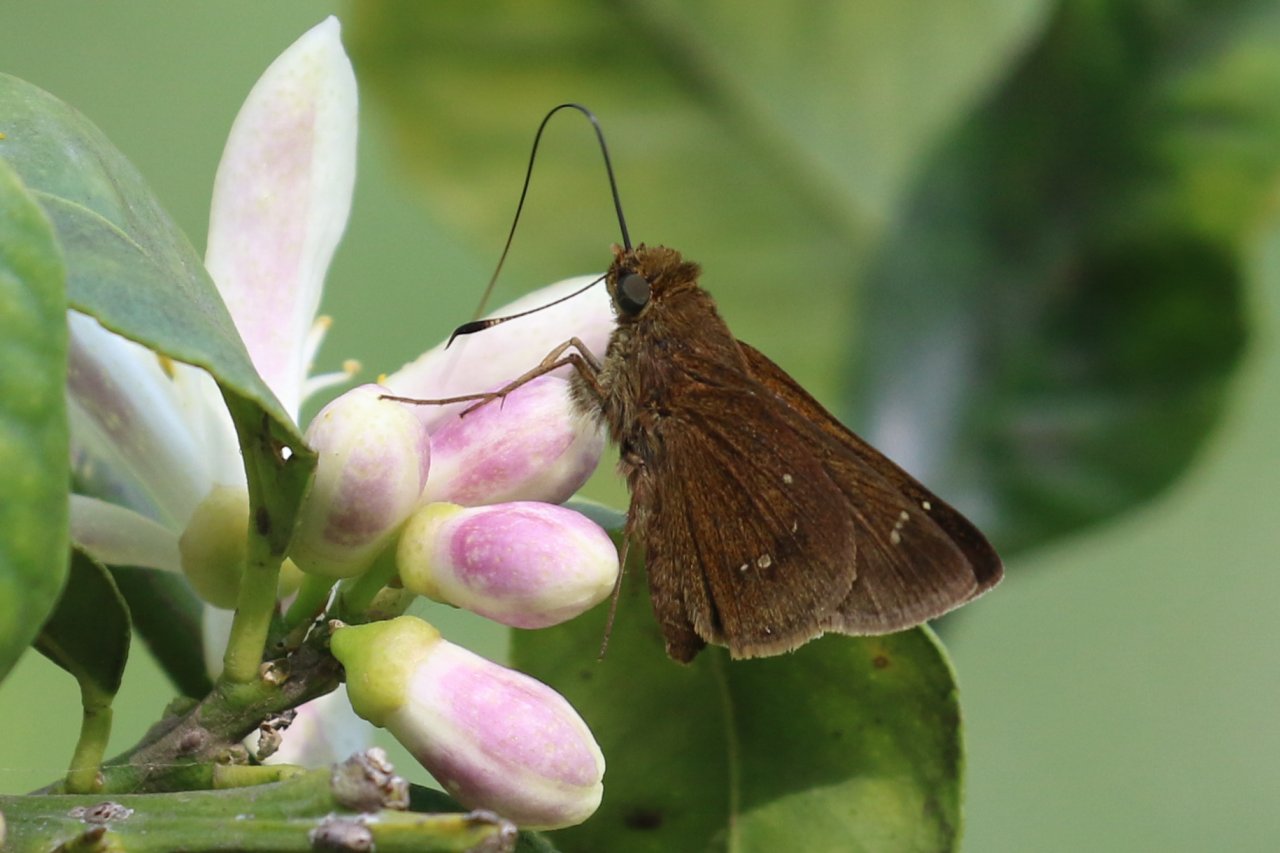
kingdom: Animalia
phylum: Arthropoda
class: Insecta
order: Lepidoptera
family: Hesperiidae
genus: Decinea
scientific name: Decinea percosius
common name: Double-dotted Skipper
